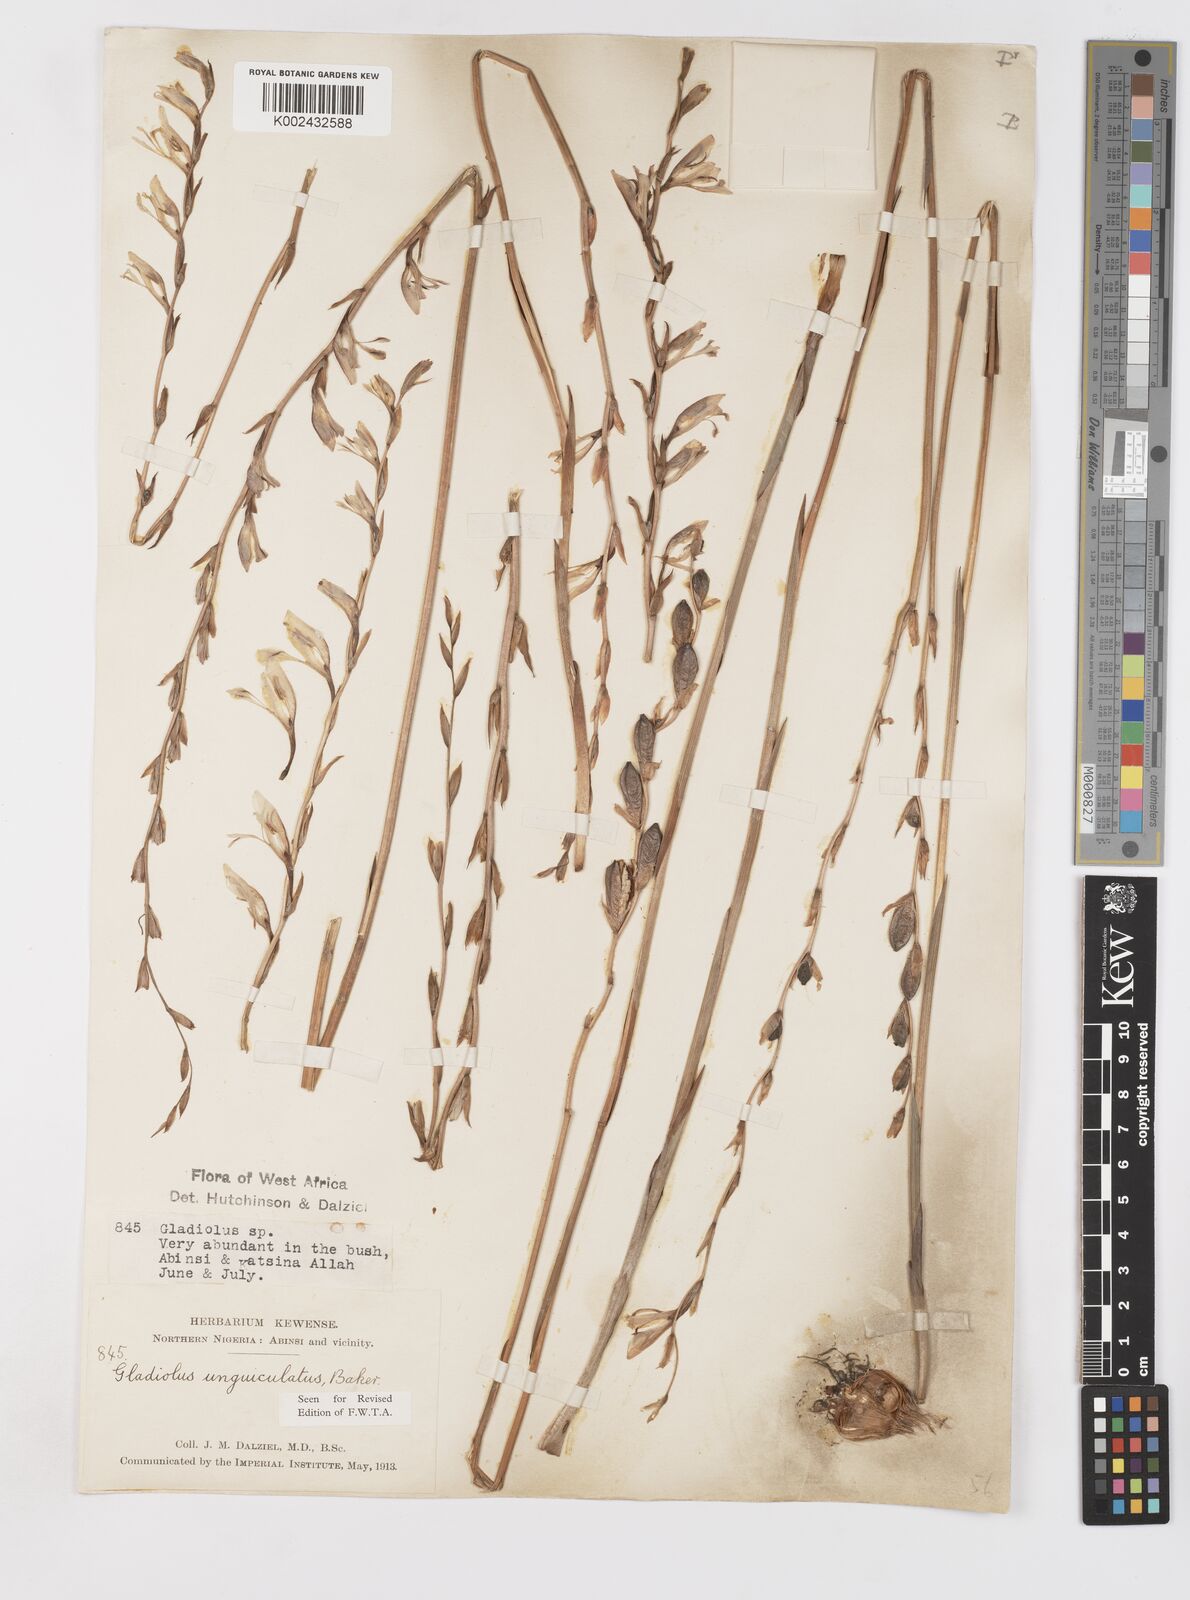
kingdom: Plantae
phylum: Tracheophyta
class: Liliopsida
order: Asparagales
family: Iridaceae
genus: Gladiolus
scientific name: Gladiolus unguiculatus
